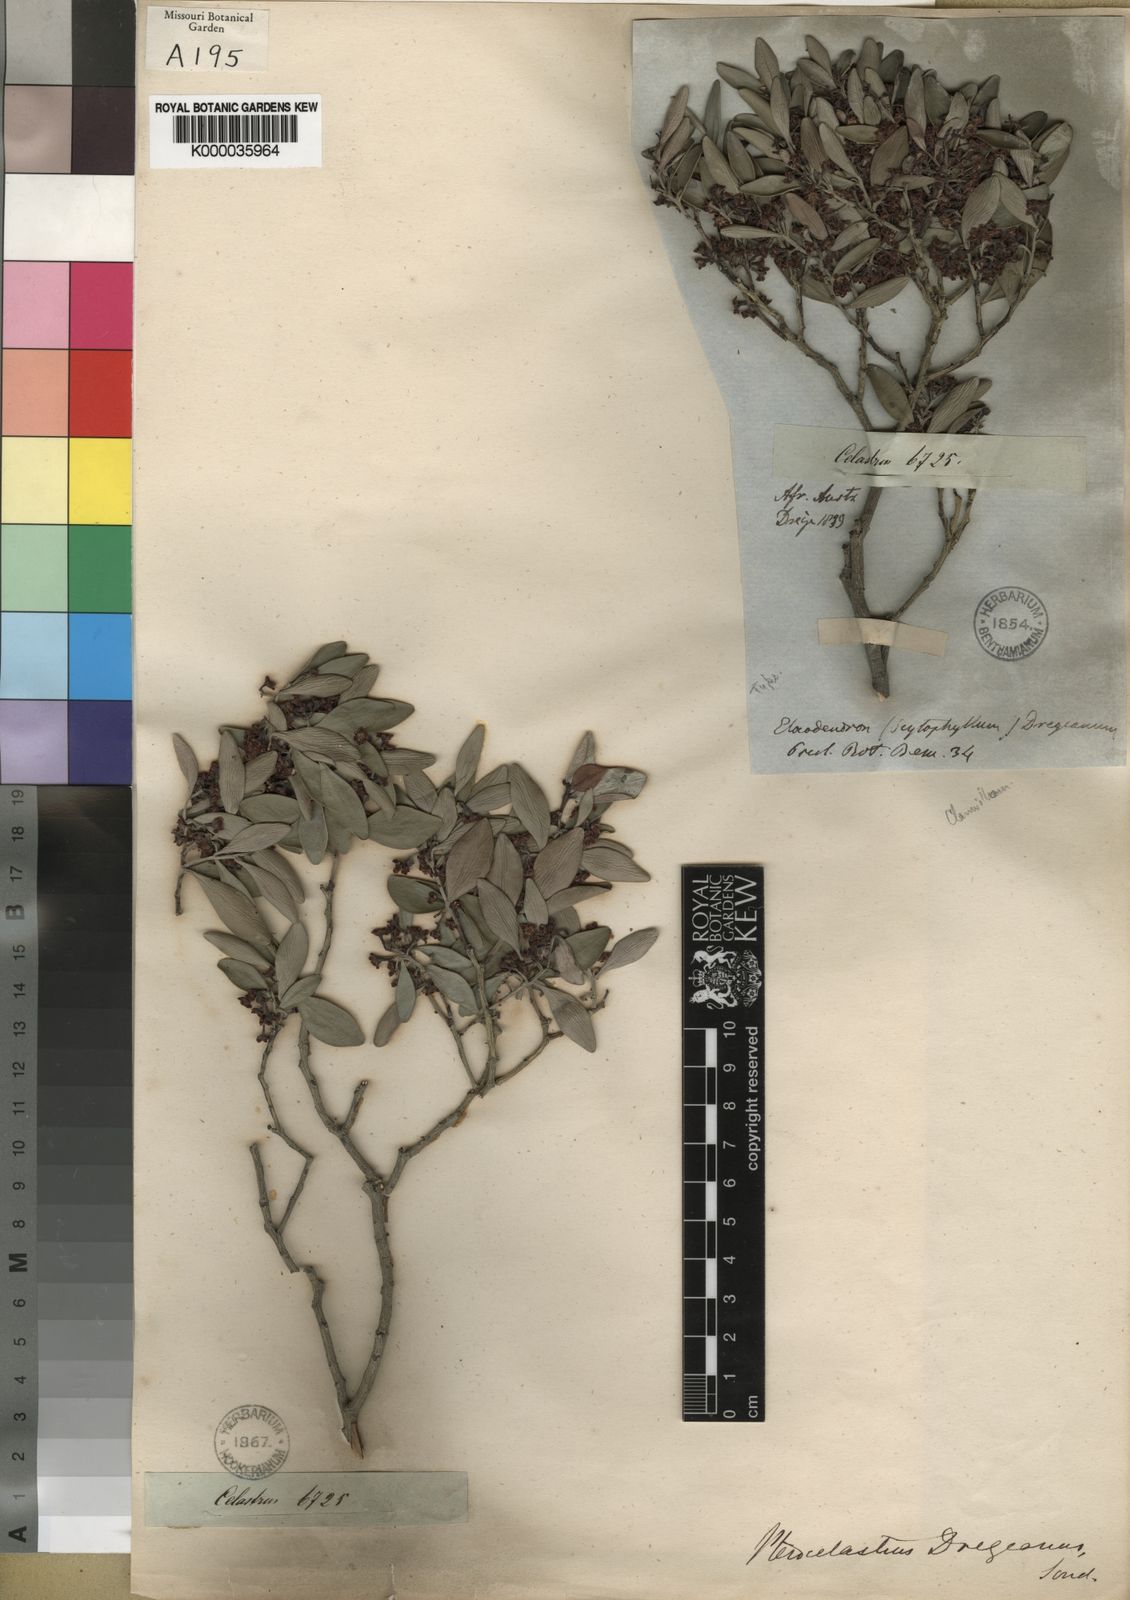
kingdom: Plantae
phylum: Tracheophyta
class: Magnoliopsida
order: Celastrales
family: Celastraceae
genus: Pterocelastrus
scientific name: Pterocelastrus tricuspidatus
